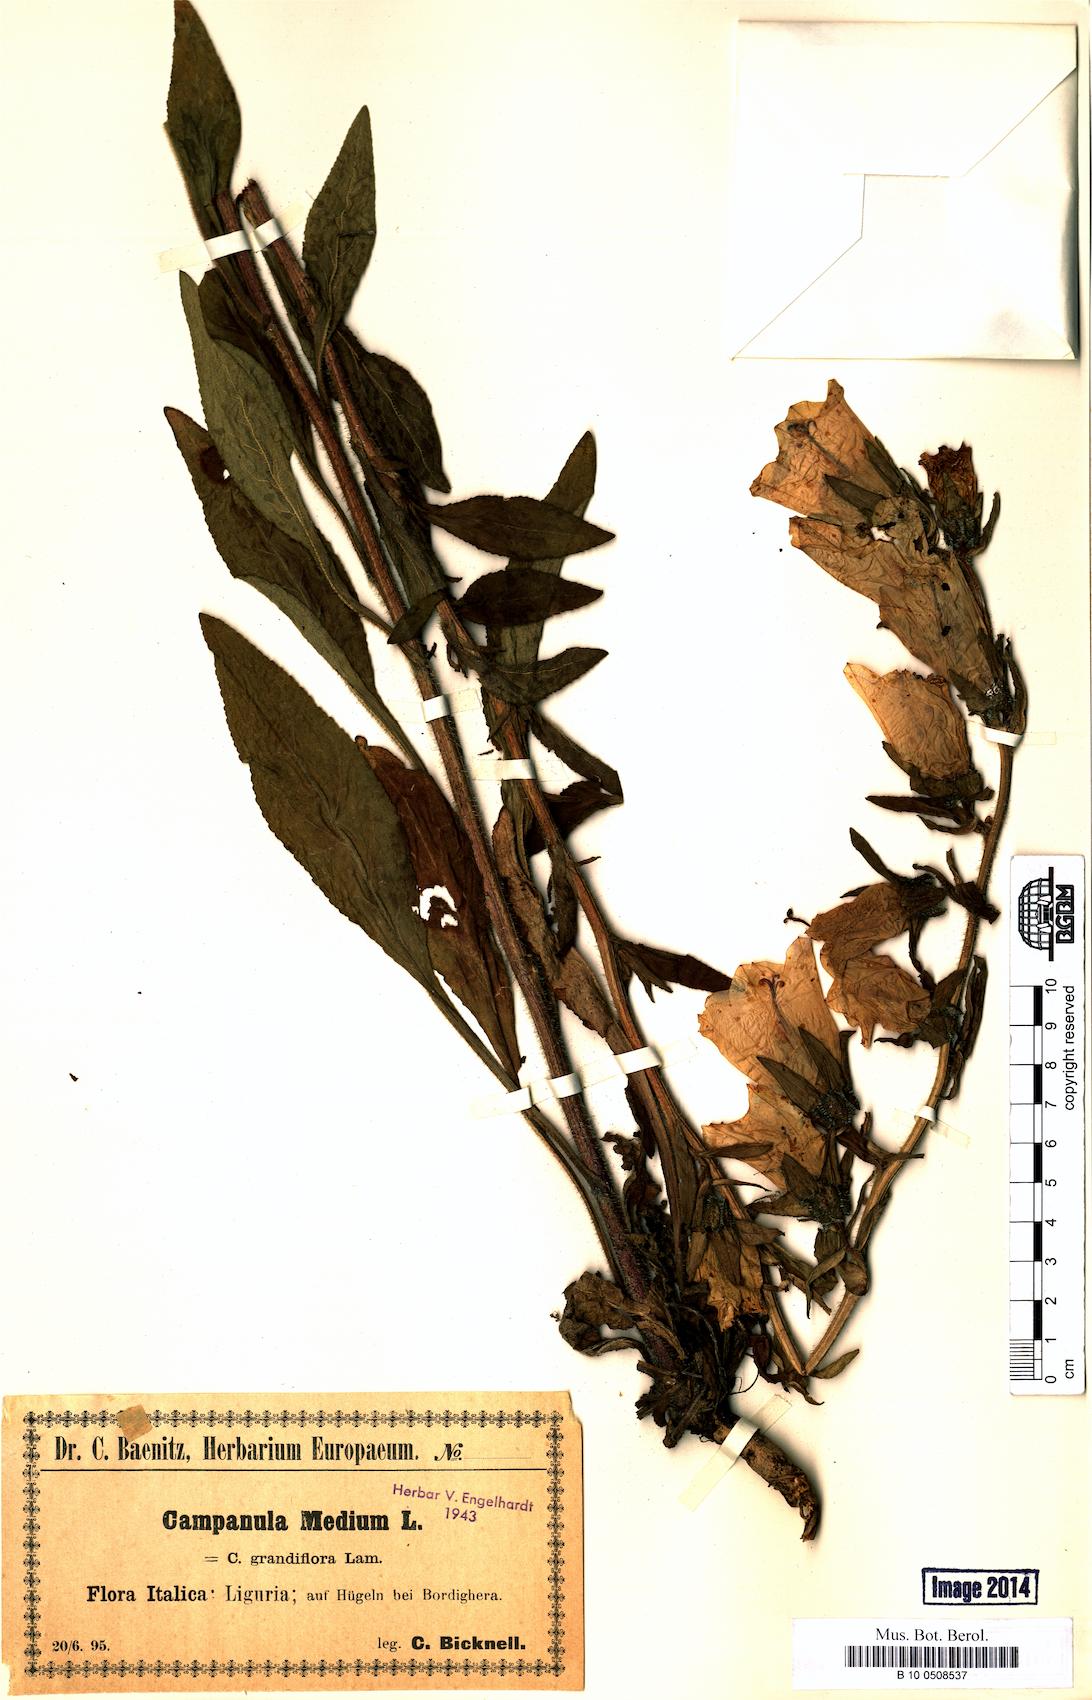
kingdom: Plantae
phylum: Tracheophyta
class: Magnoliopsida
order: Asterales
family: Campanulaceae
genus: Campanula
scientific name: Campanula medium
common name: Canterbury bells
